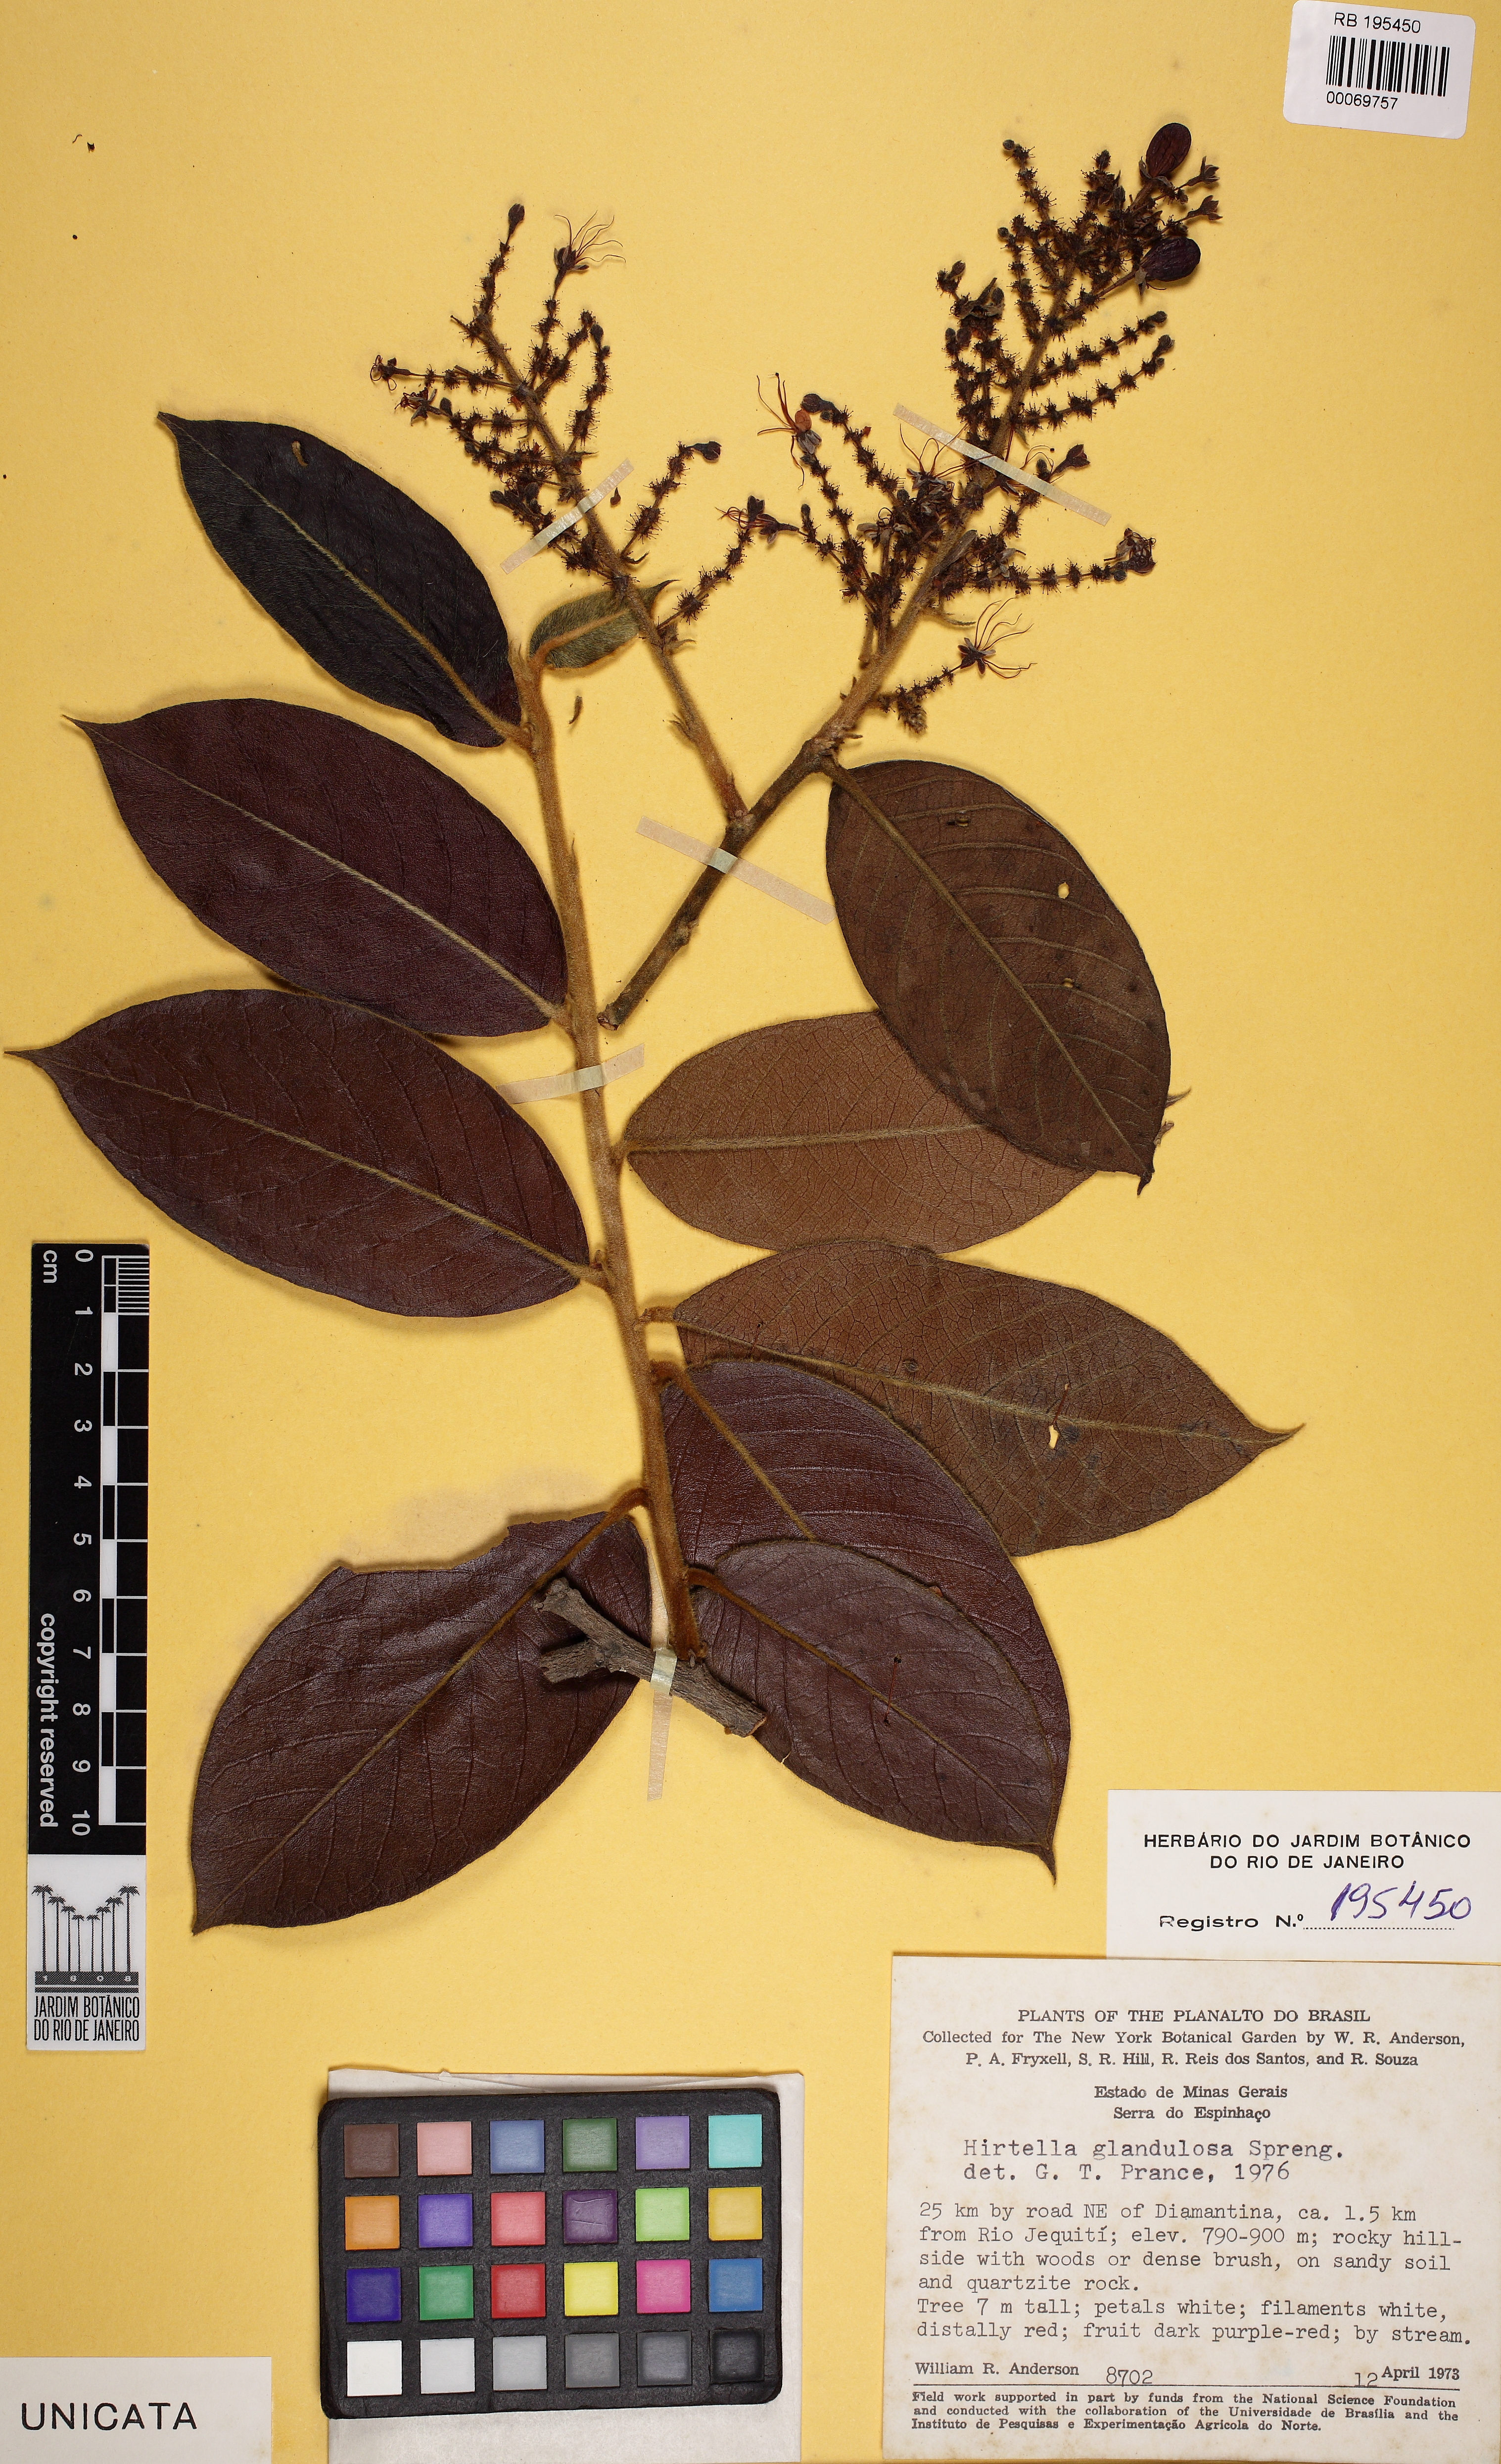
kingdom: Plantae
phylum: Tracheophyta
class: Magnoliopsida
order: Malpighiales
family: Chrysobalanaceae
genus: Hirtella
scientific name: Hirtella glandulosa
